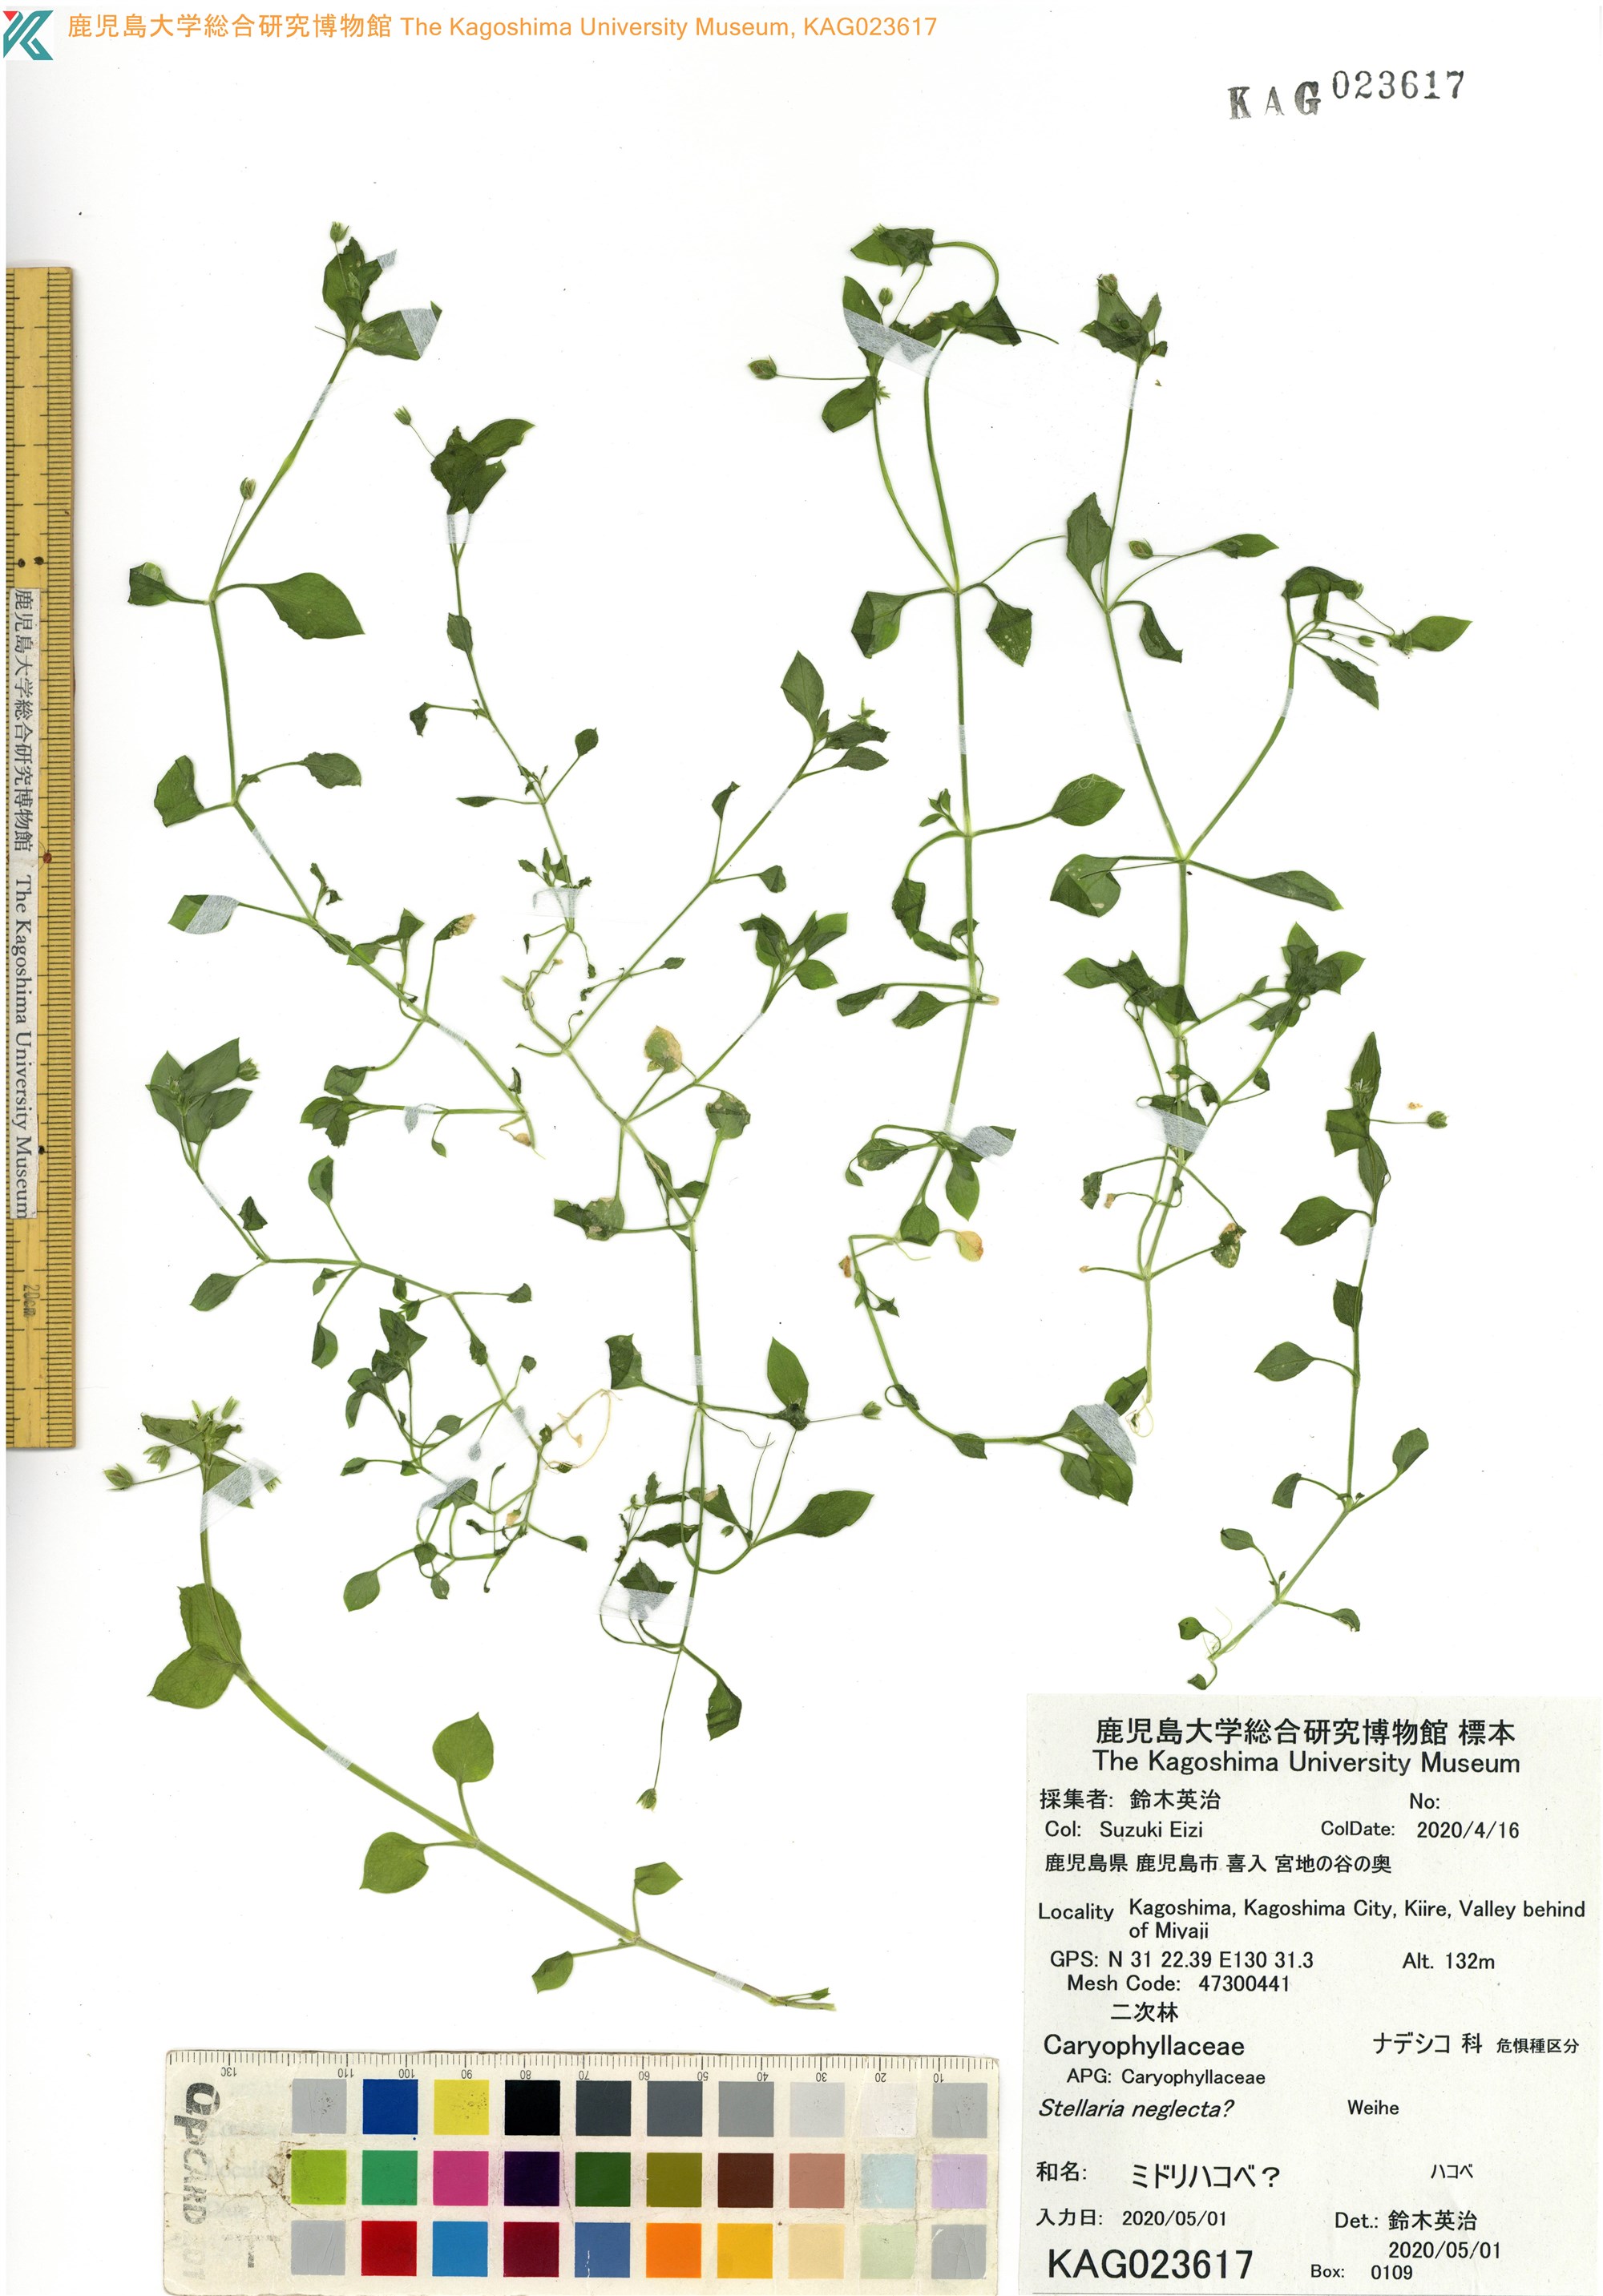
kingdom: Plantae
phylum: Tracheophyta
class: Magnoliopsida
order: Caryophyllales
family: Caryophyllaceae
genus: Stellaria
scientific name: Stellaria neglecta
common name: Greater chickweed
